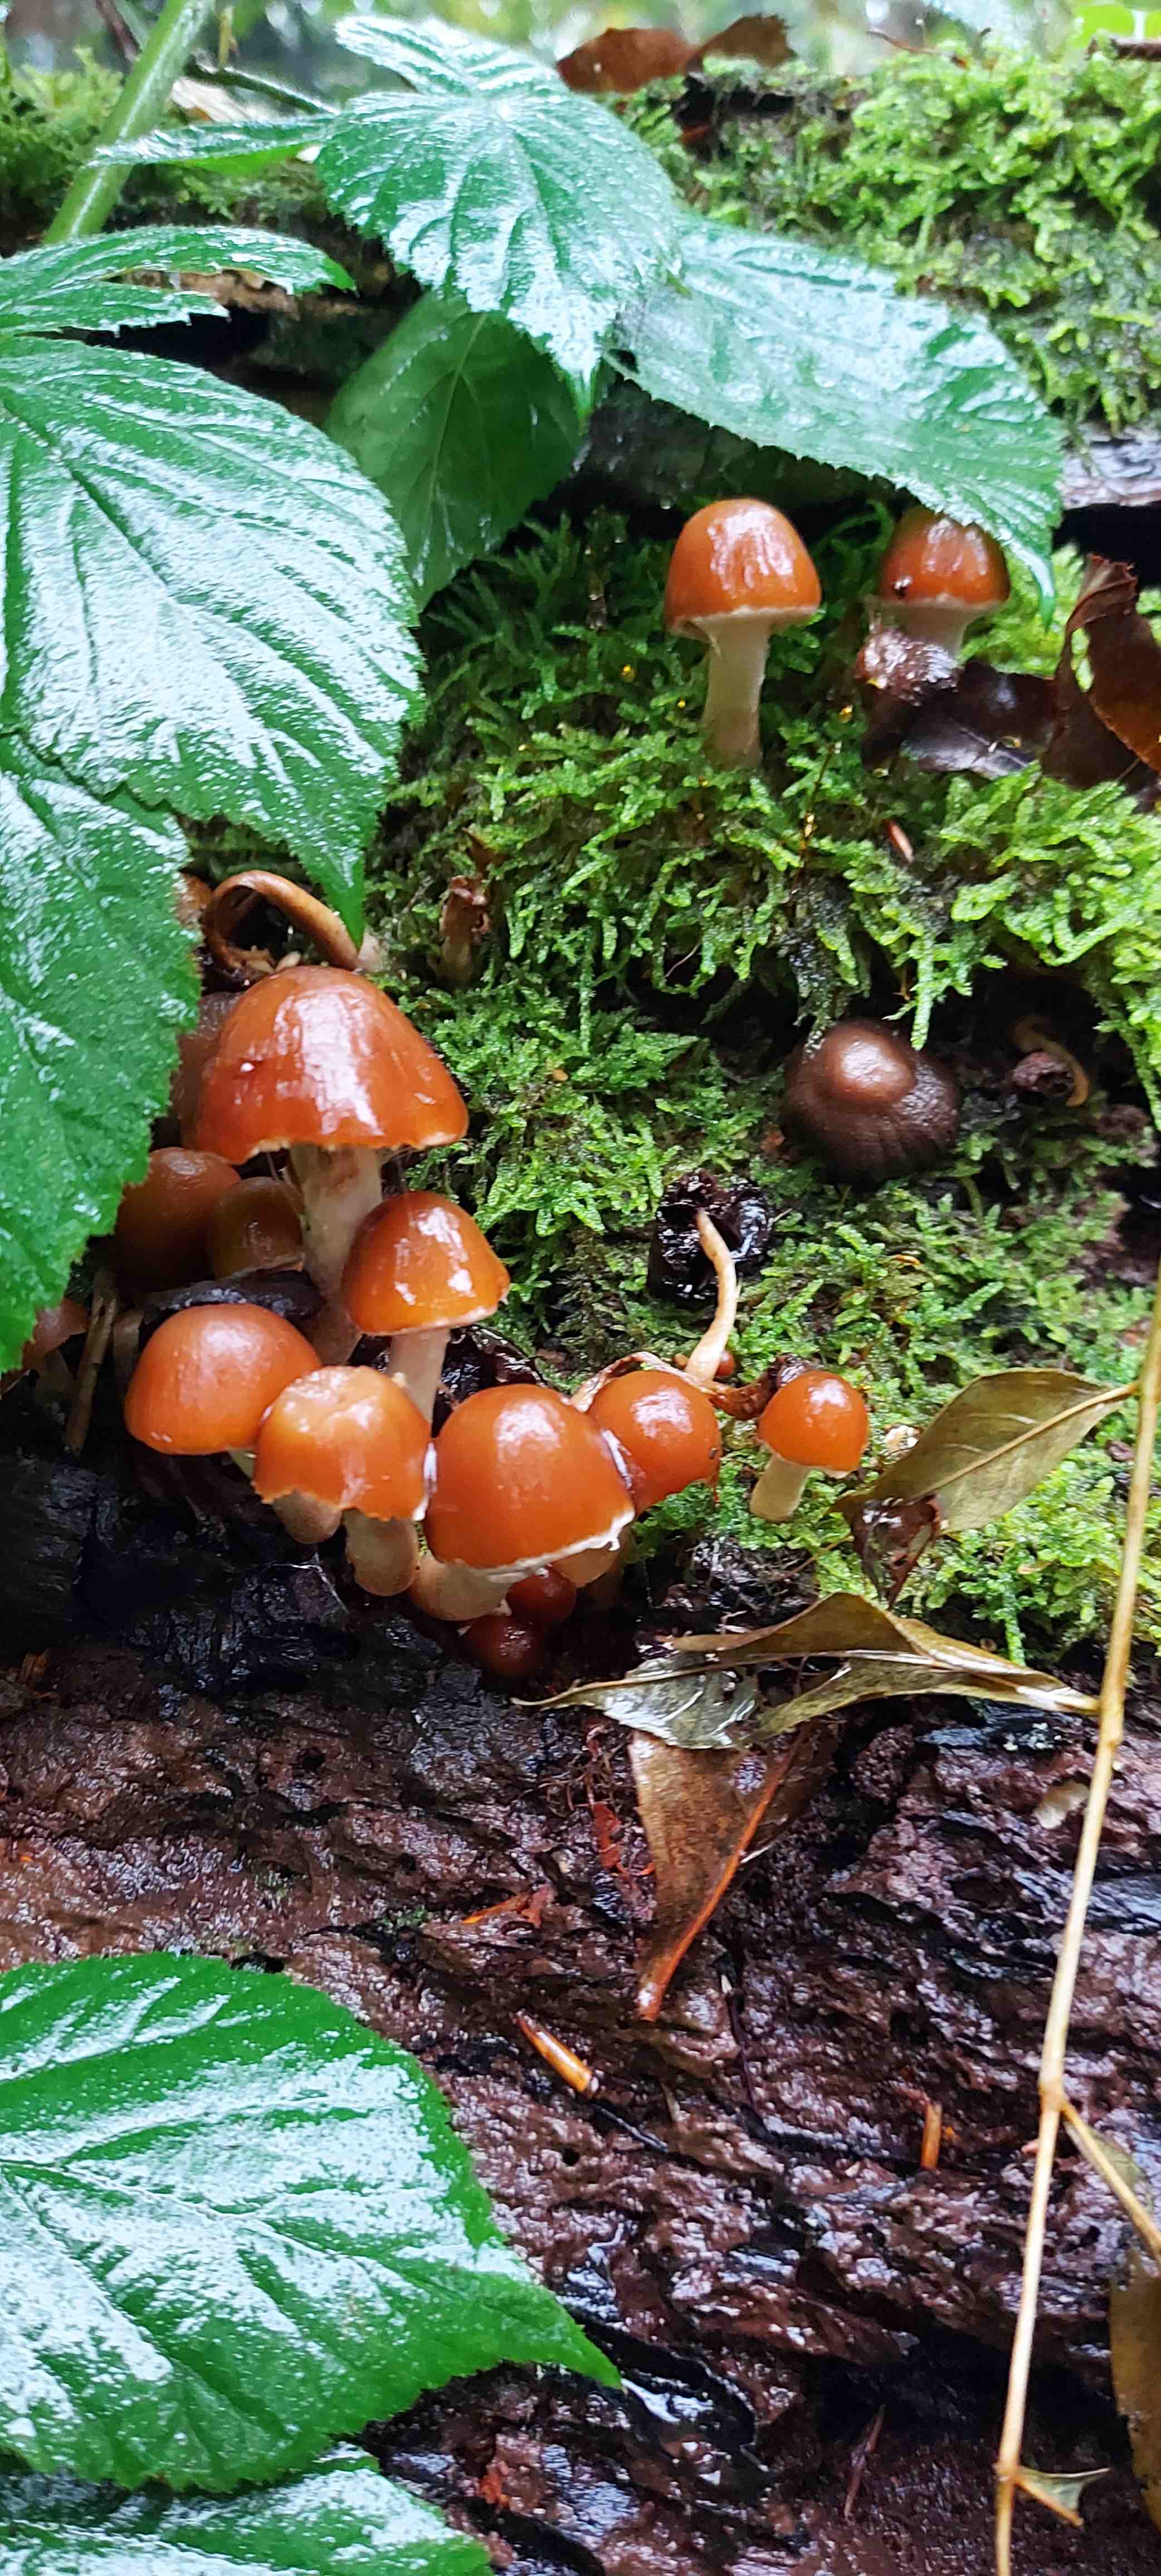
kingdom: Fungi
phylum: Basidiomycota
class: Agaricomycetes
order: Agaricales
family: Psathyrellaceae
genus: Psathyrella
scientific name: Psathyrella
